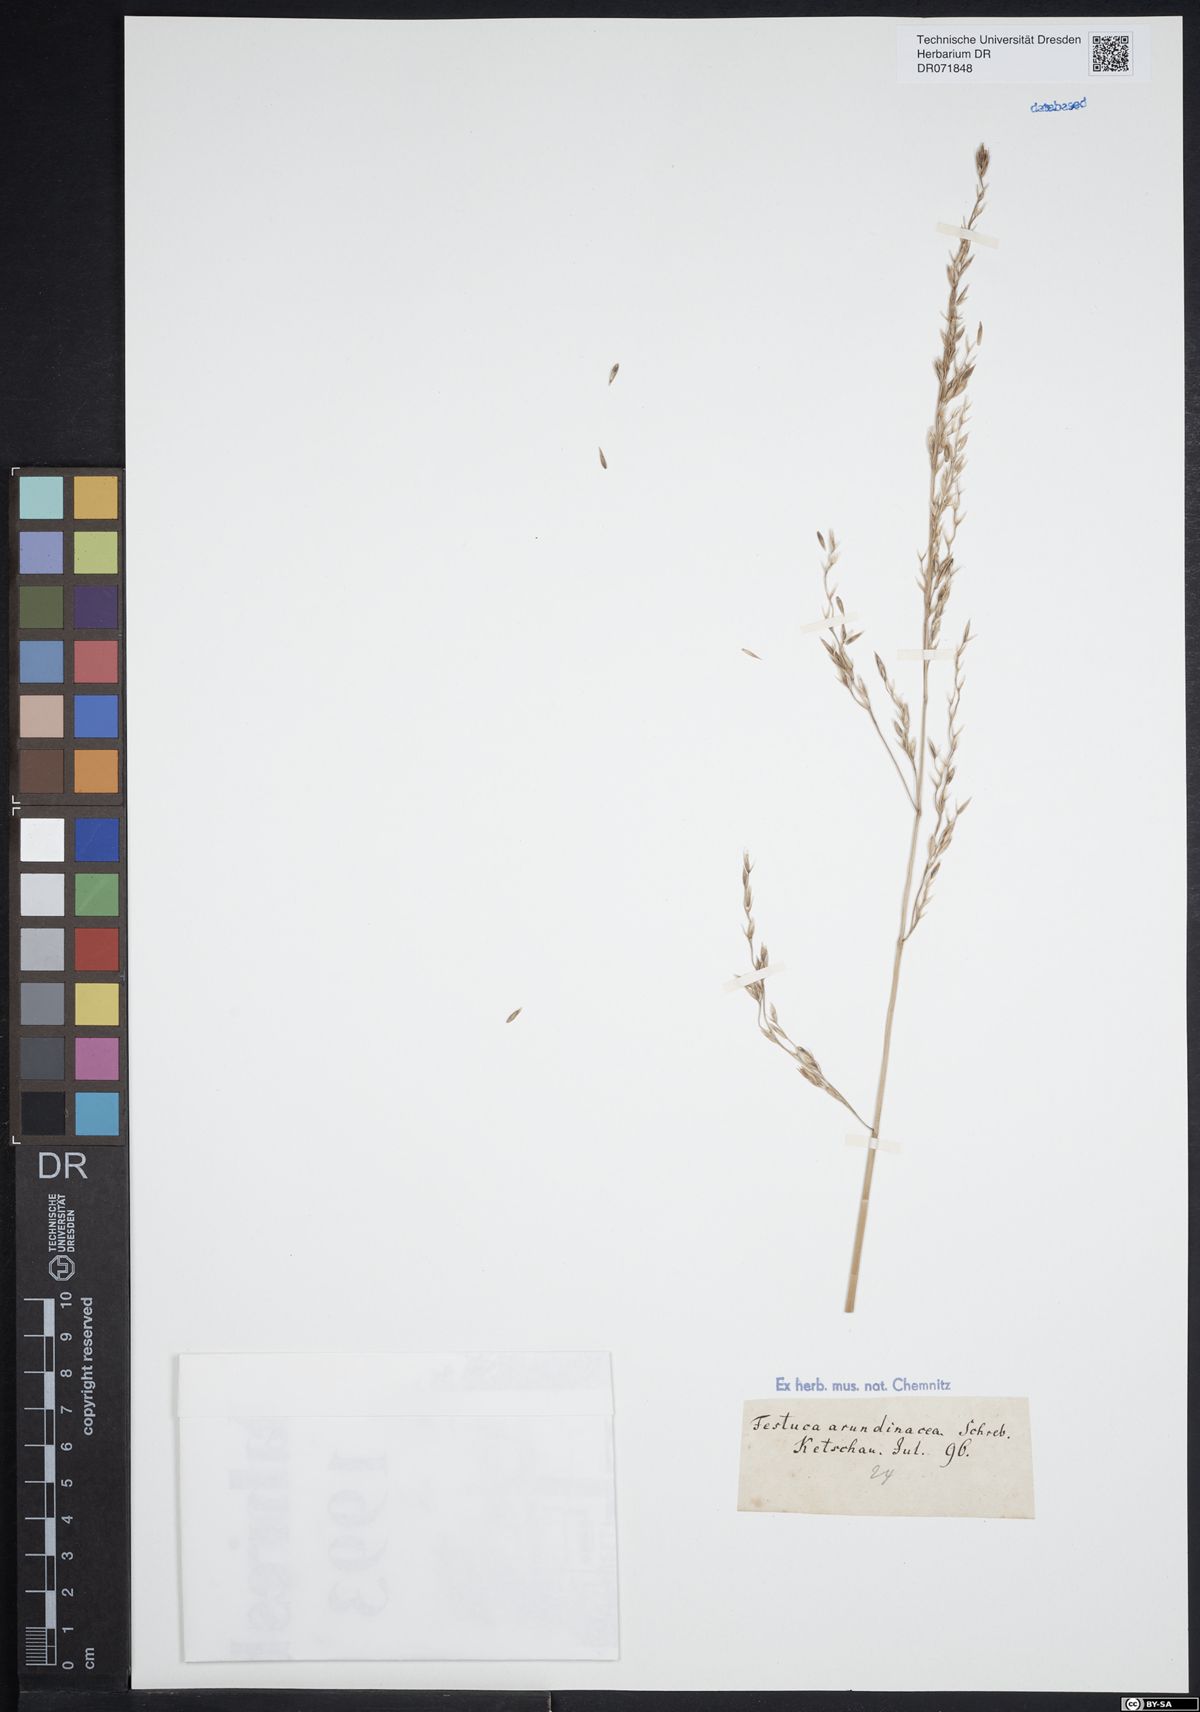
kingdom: Plantae
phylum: Tracheophyta
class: Liliopsida
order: Poales
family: Poaceae
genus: Lolium
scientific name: Lolium arundinaceum
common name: Reed fescue
